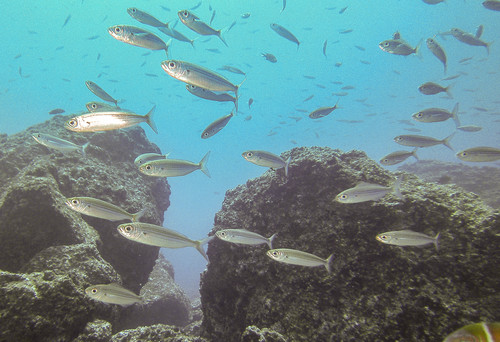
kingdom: Animalia
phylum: Chordata
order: Perciformes
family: Sparidae
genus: Boops
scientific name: Boops boops
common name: Bogue
